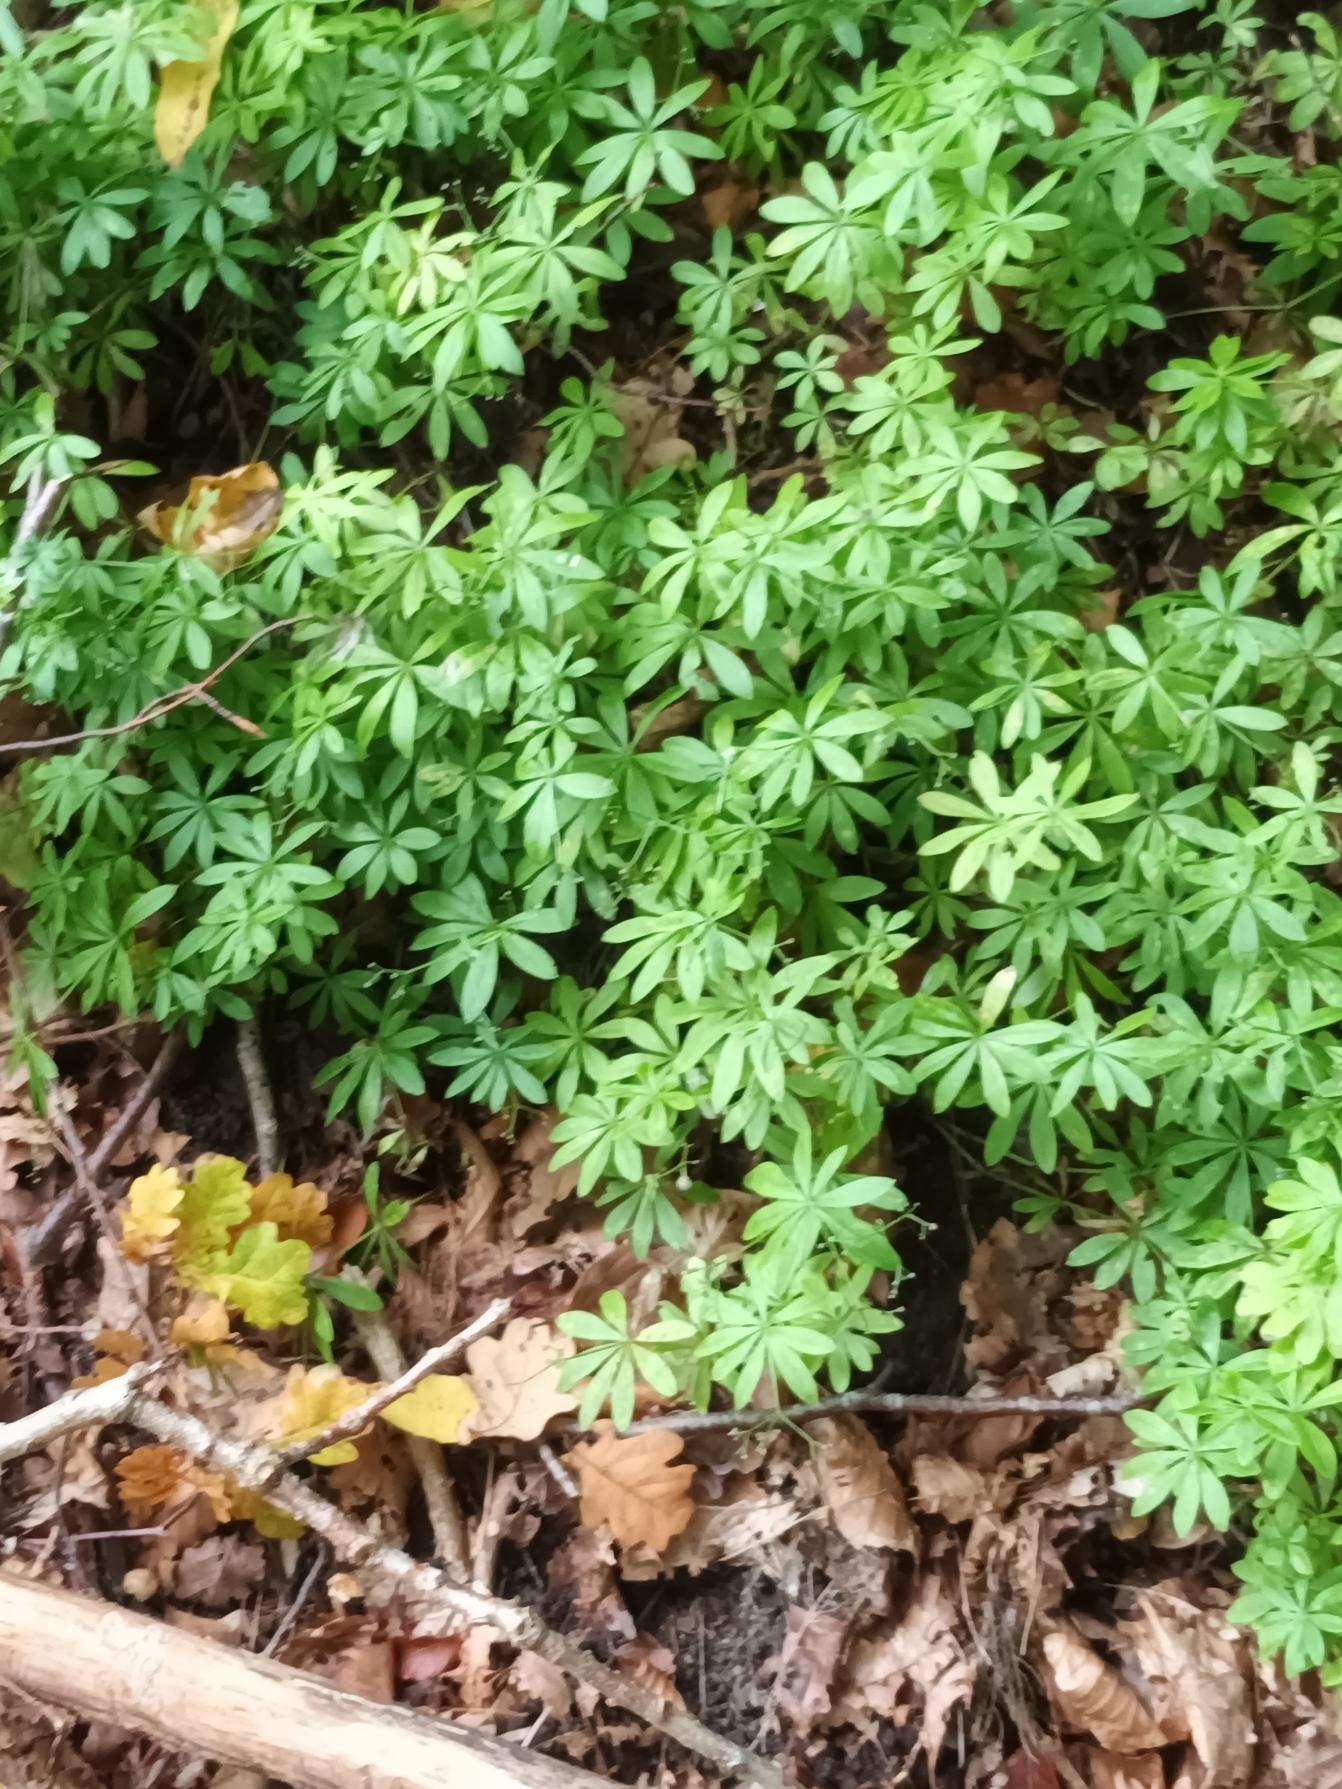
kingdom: Plantae
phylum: Tracheophyta
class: Magnoliopsida
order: Gentianales
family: Rubiaceae
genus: Galium
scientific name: Galium odoratum
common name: Skovmærke
